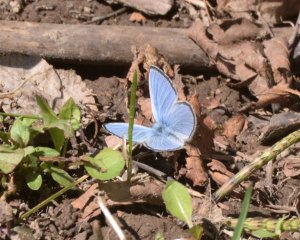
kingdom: Animalia
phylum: Arthropoda
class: Insecta
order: Lepidoptera
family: Lycaenidae
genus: Glaucopsyche
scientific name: Glaucopsyche lygdamus
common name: Silvery Blue
